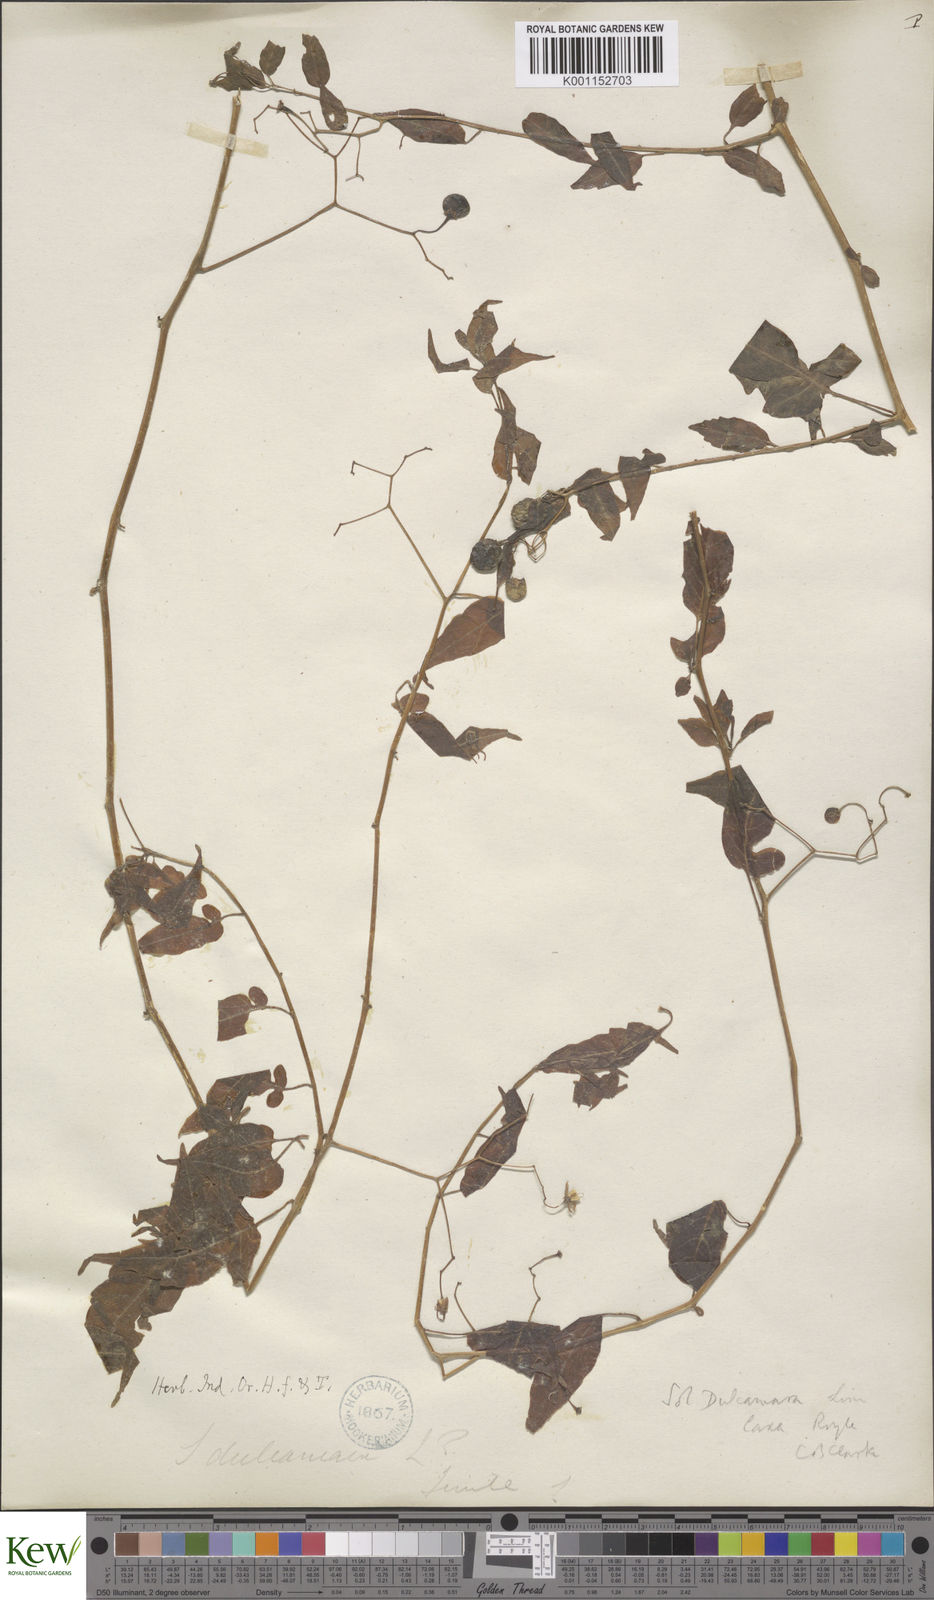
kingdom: Plantae
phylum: Tracheophyta
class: Magnoliopsida
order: Solanales
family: Solanaceae
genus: Solanum
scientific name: Solanum dulcamara
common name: Climbing nightshade
